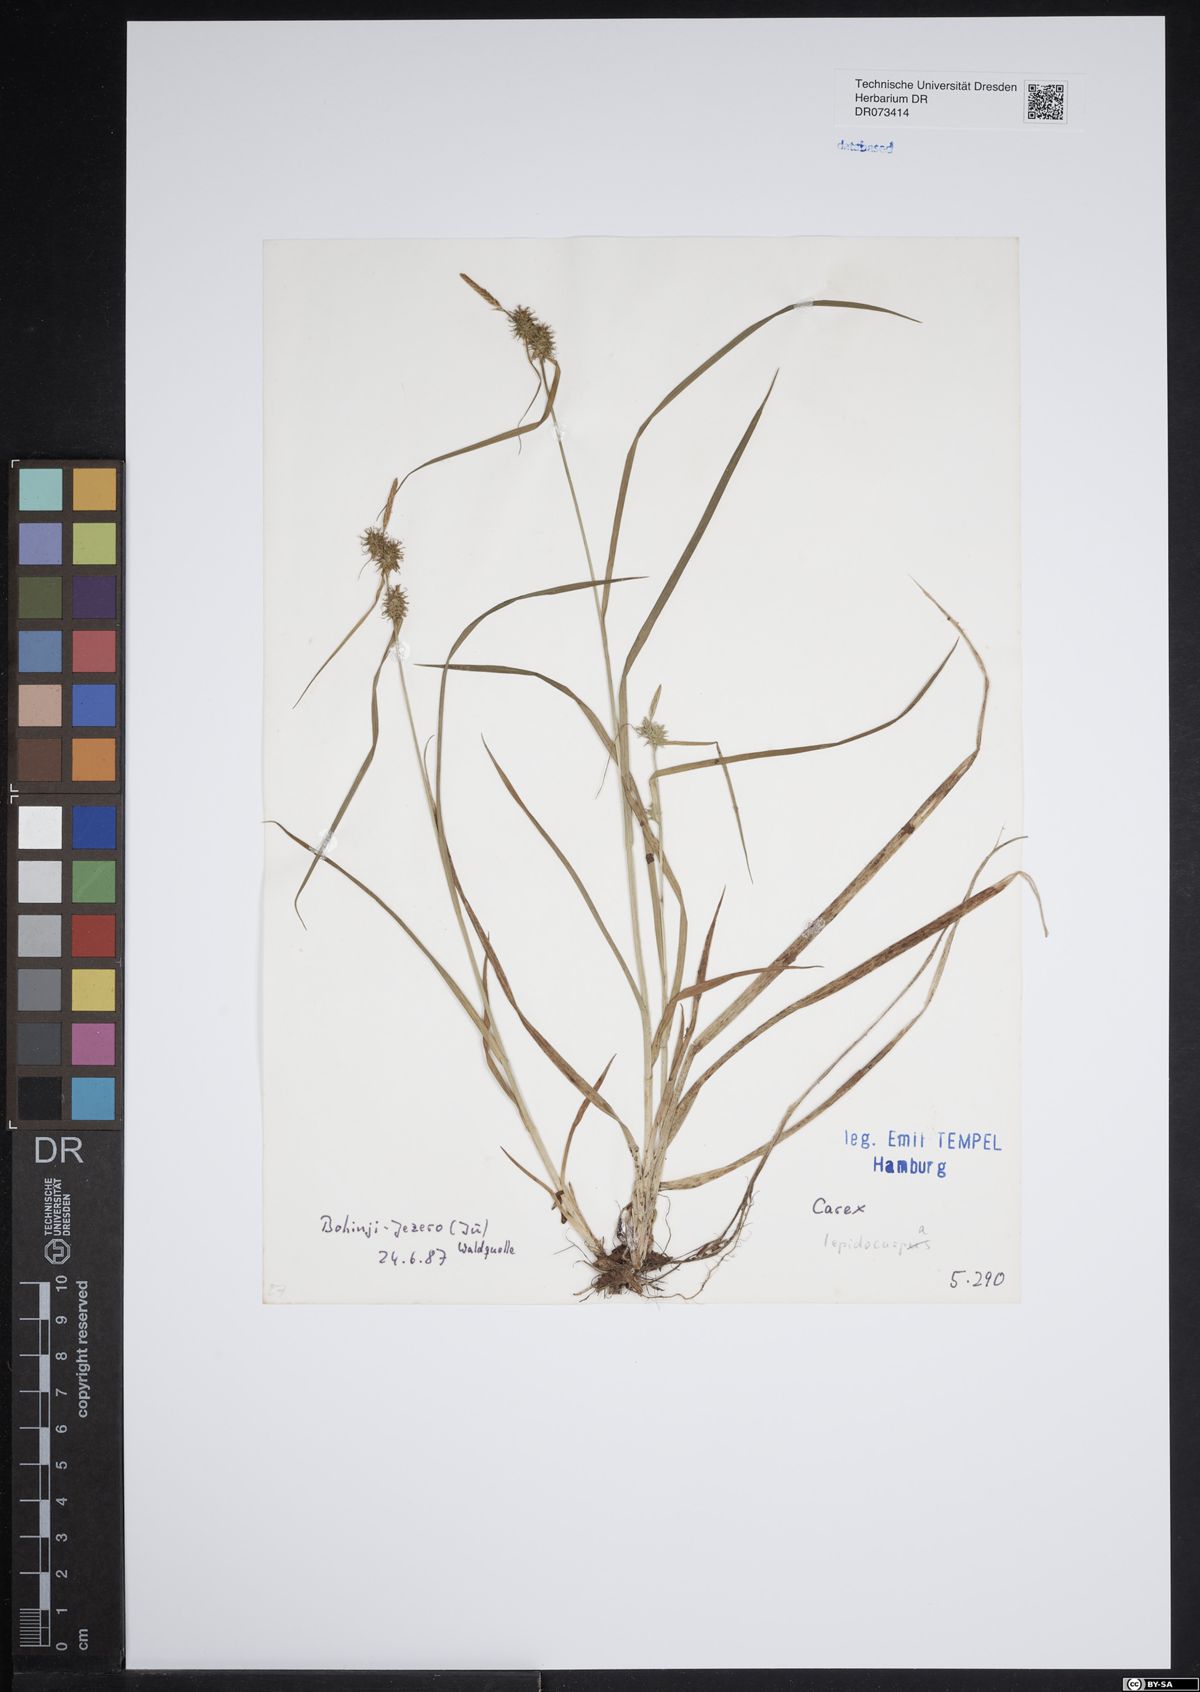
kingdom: Plantae
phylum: Tracheophyta
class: Liliopsida
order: Poales
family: Cyperaceae
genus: Carex
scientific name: Carex lepidocarpa
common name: Long-stalked yellow-sedge
